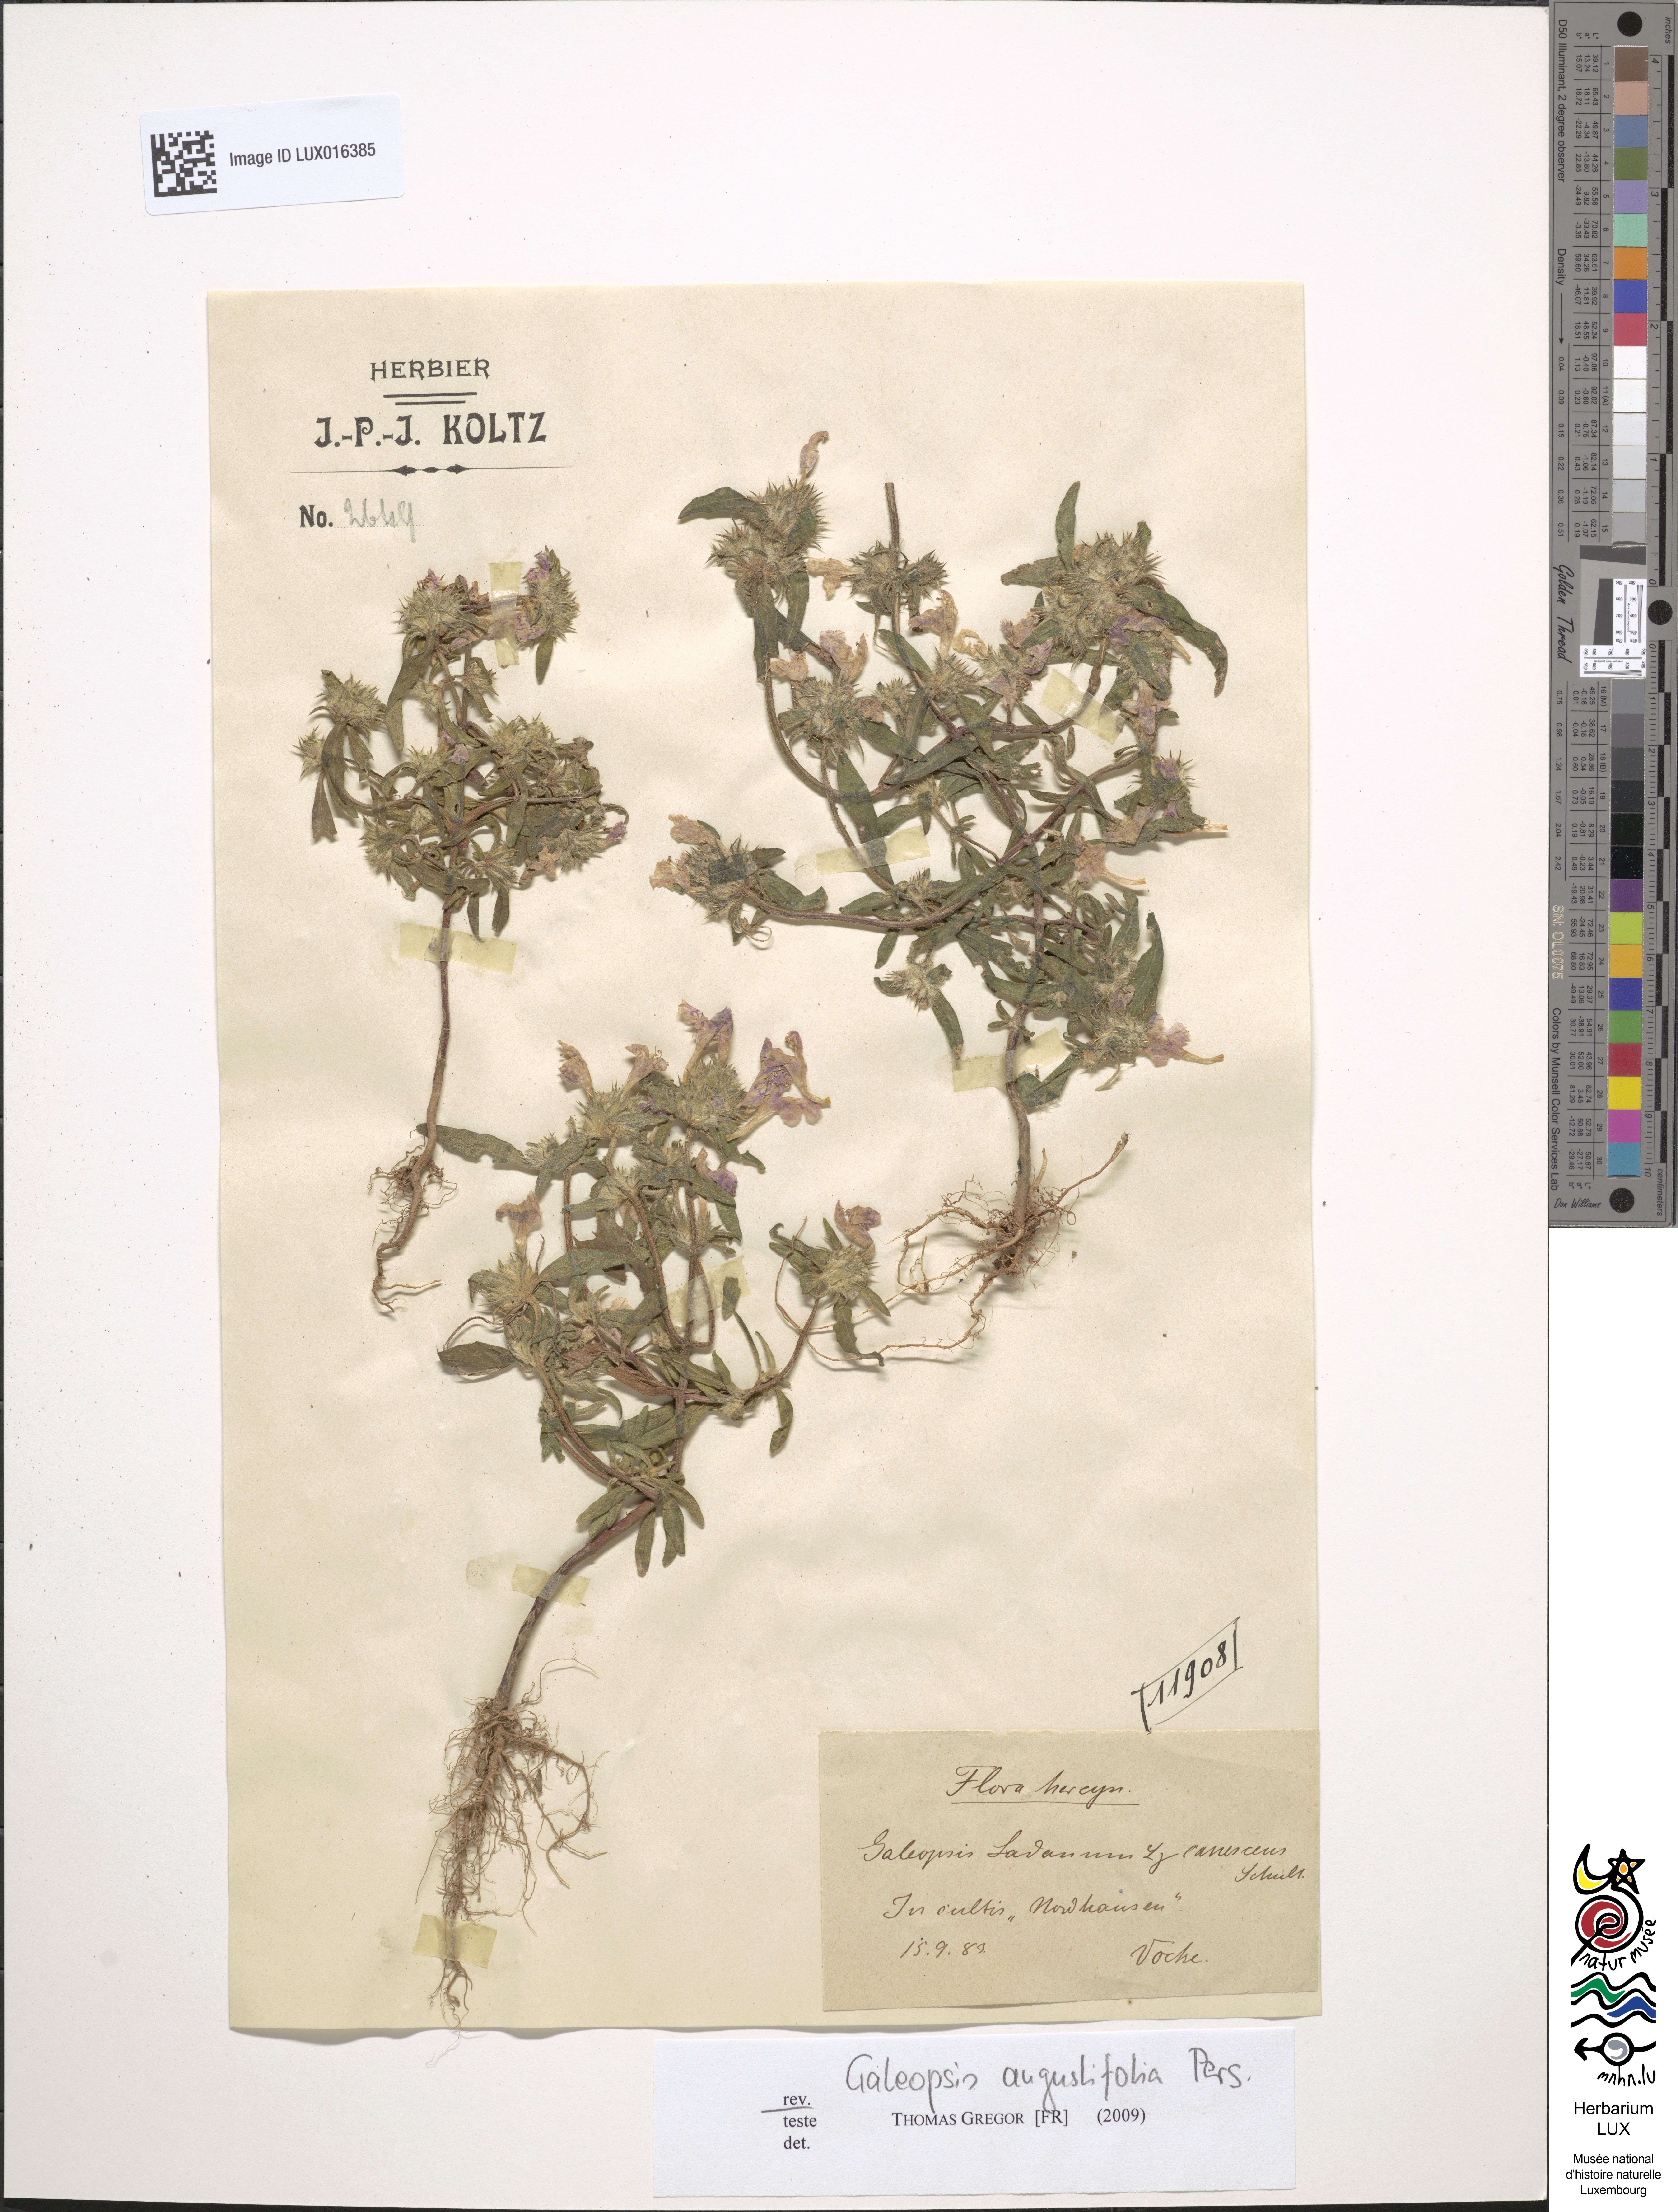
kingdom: Plantae
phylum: Tracheophyta
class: Magnoliopsida
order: Lamiales
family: Lamiaceae
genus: Galeopsis
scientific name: Galeopsis angustifolia
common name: Red hemp-nettle
